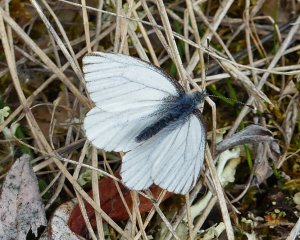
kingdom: Animalia
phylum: Arthropoda
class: Insecta
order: Lepidoptera
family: Pieridae
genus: Pieris
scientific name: Pieris angelika
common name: Arctic White
